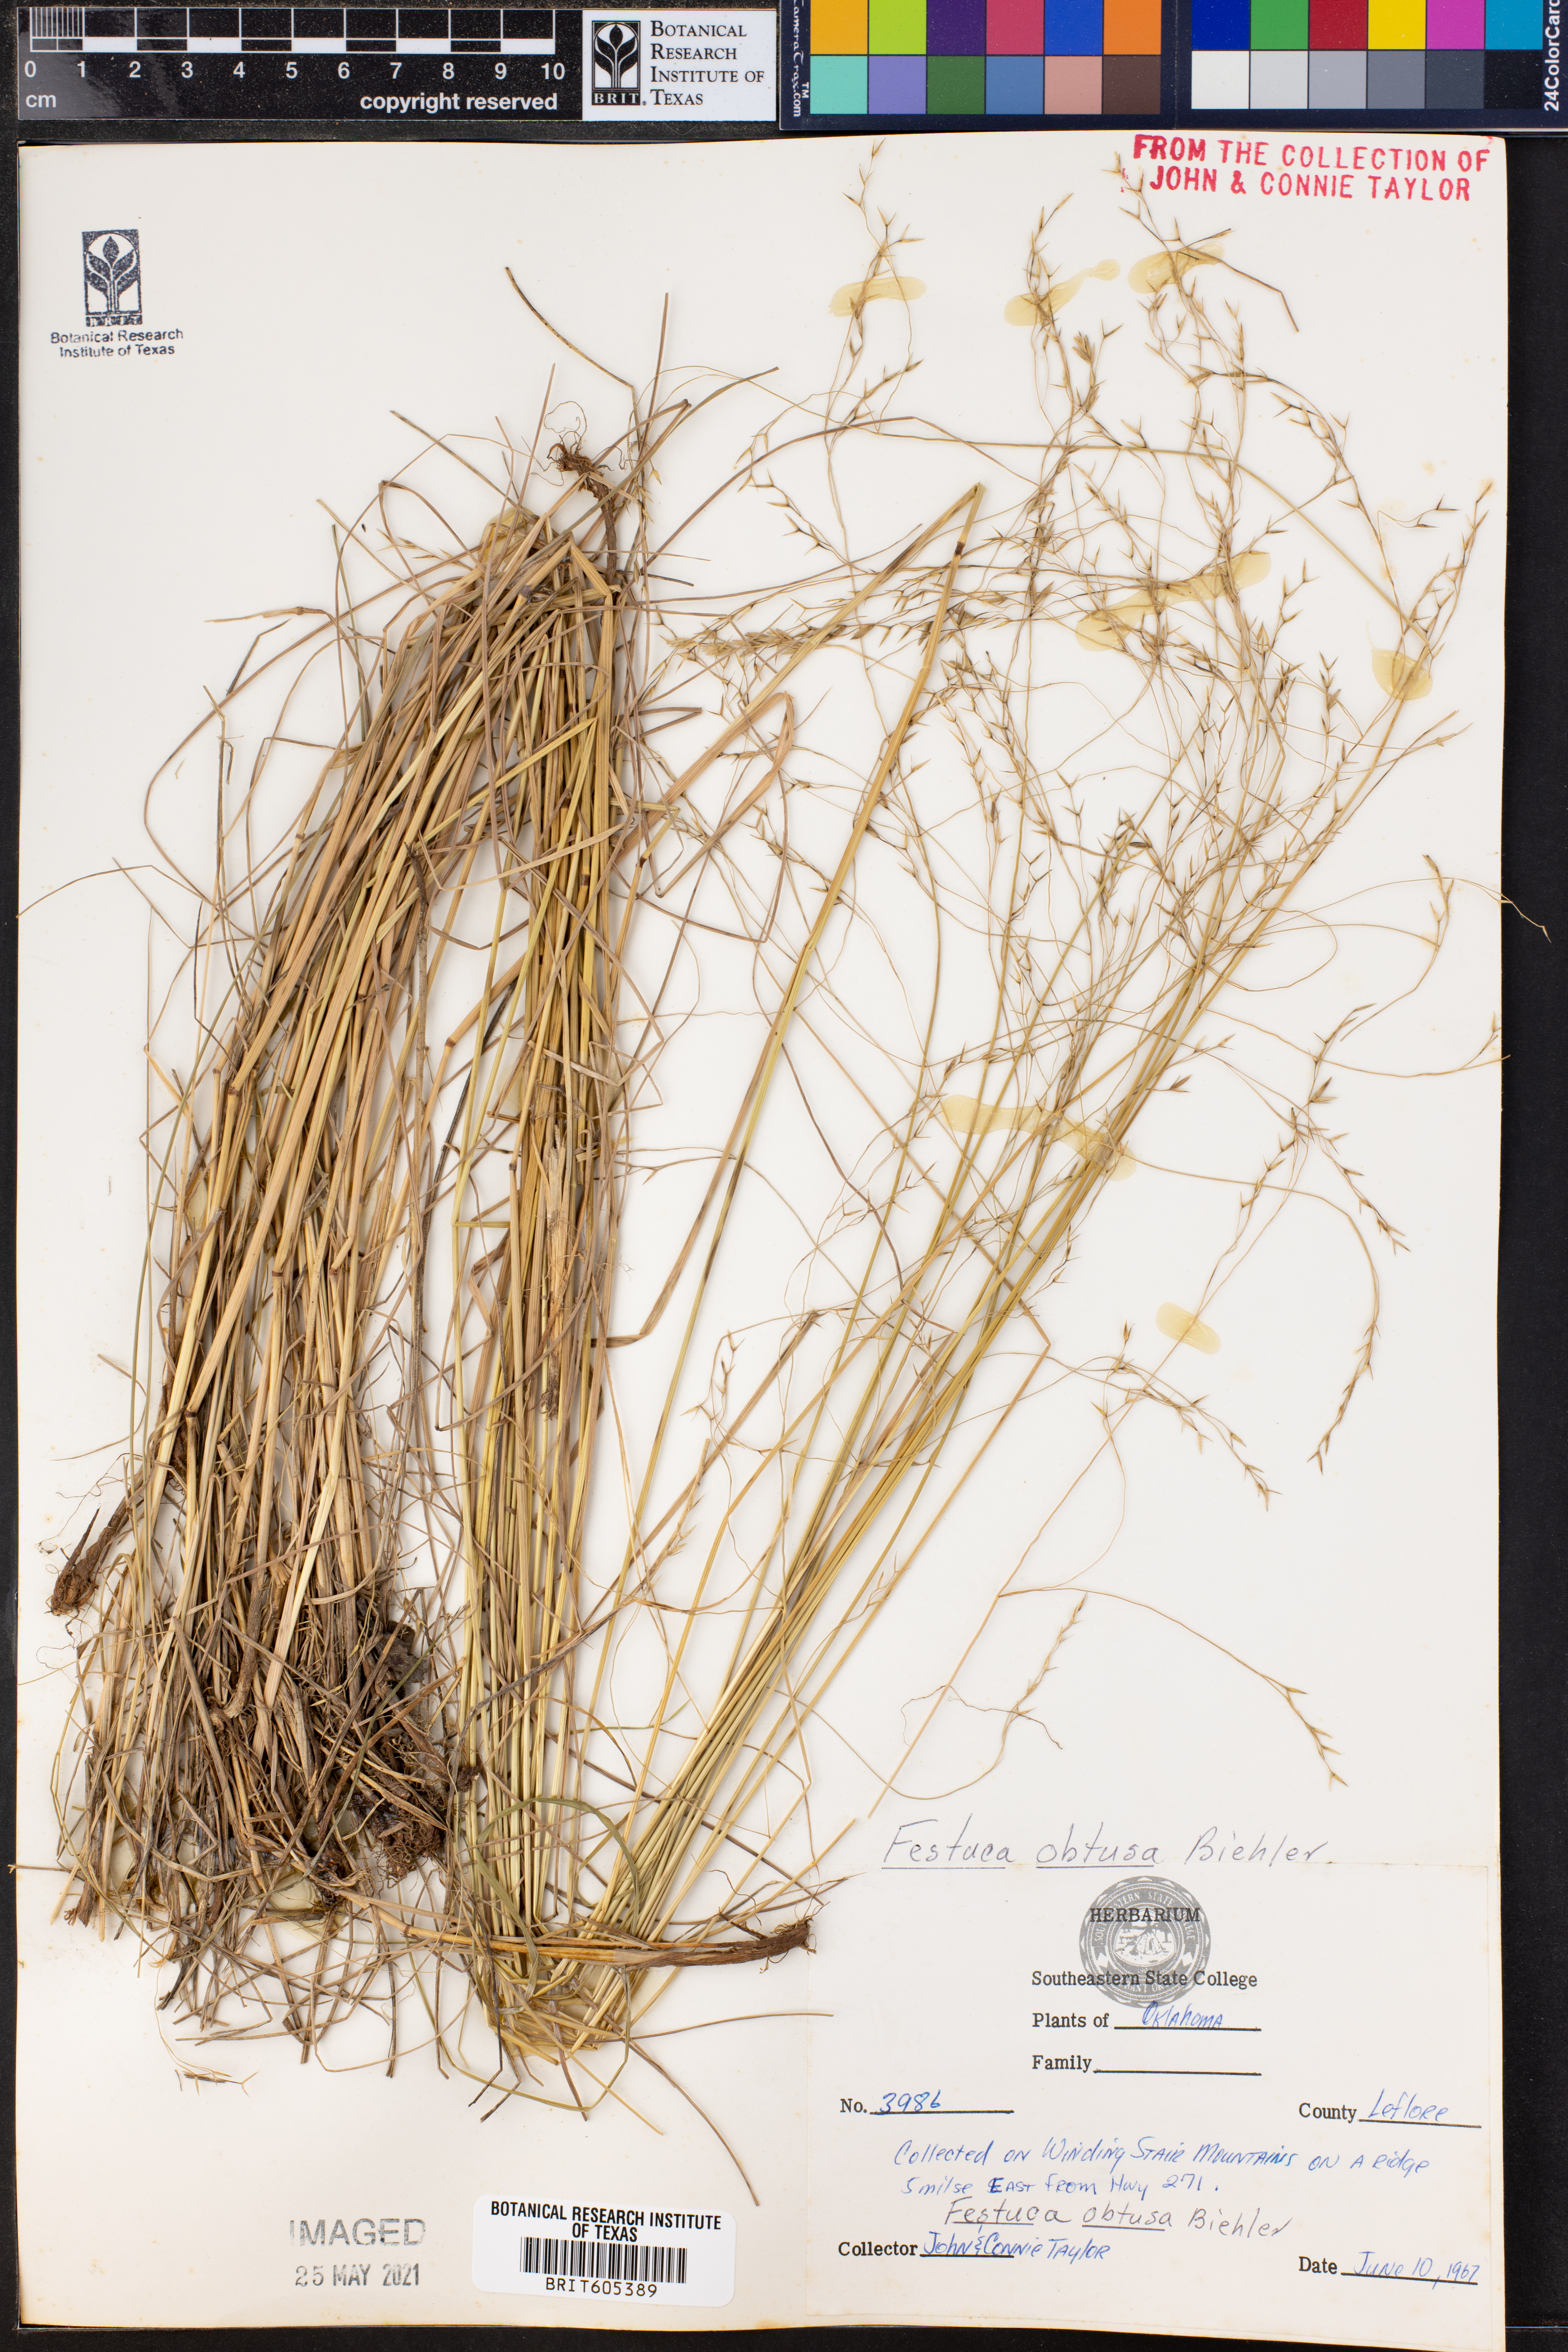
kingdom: Plantae
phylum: Tracheophyta
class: Liliopsida
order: Poales
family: Poaceae
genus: Festuca
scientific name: Festuca subverticillata
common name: Nodding fescue
